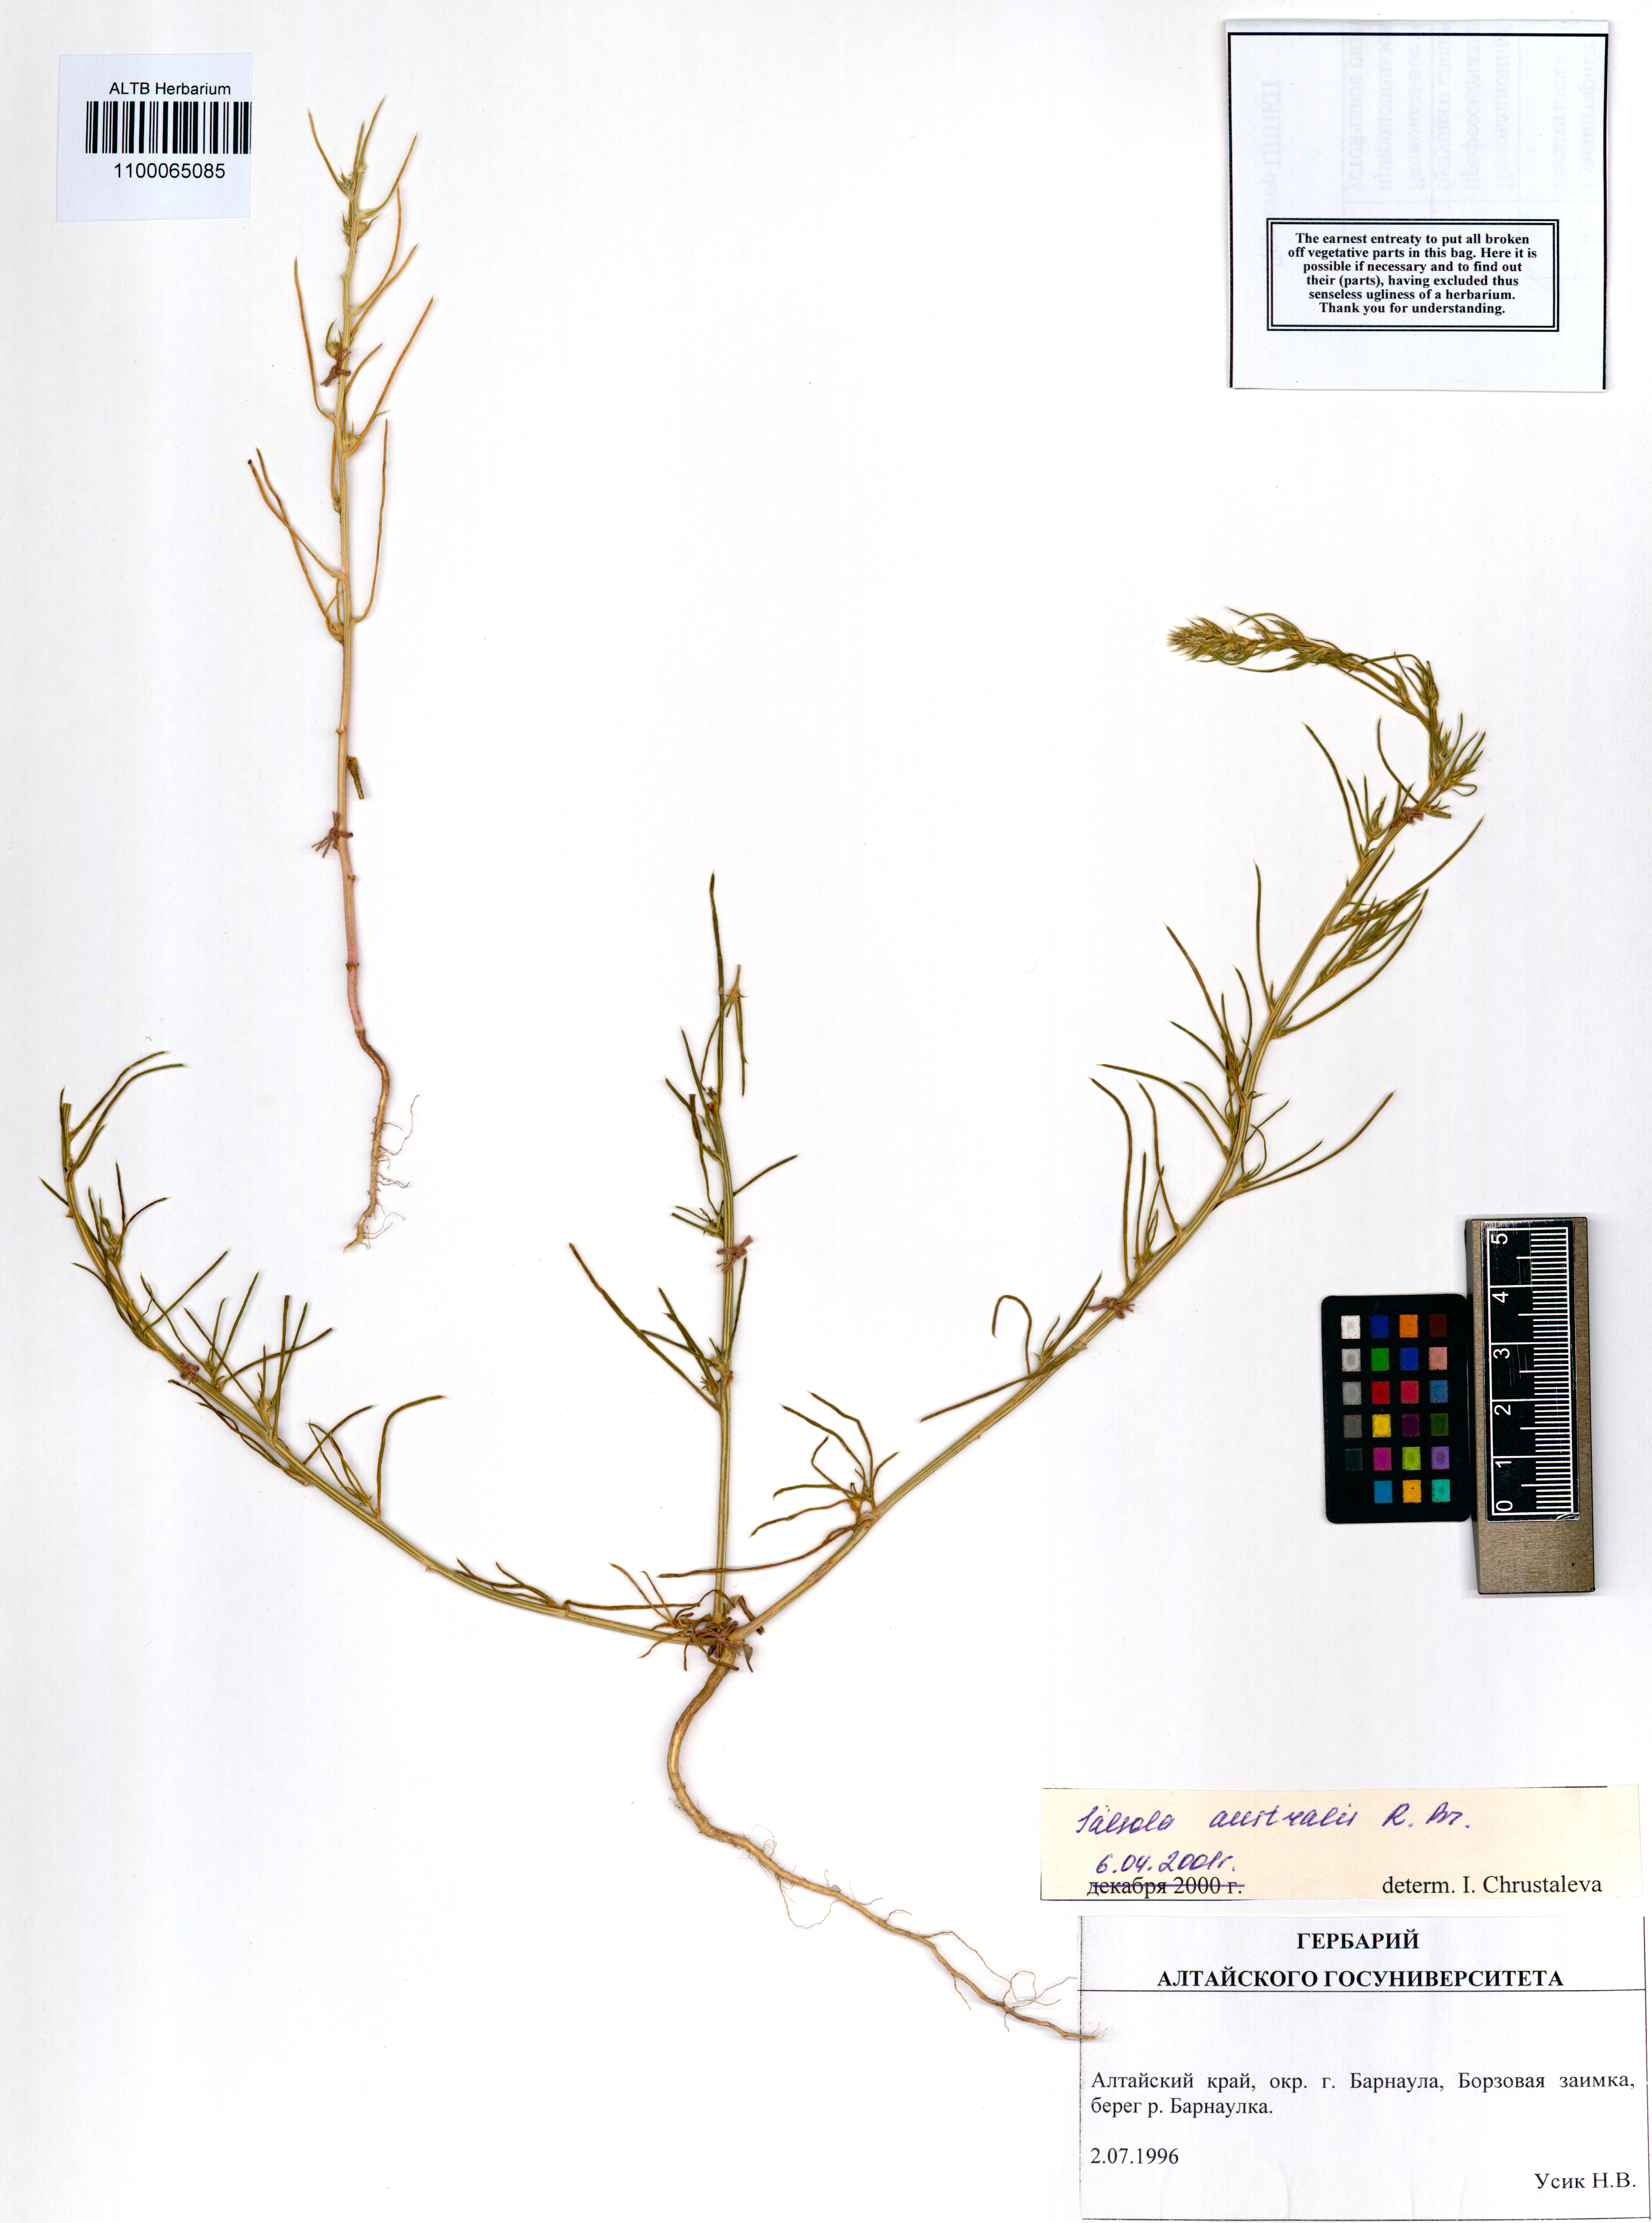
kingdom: Plantae
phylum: Tracheophyta
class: Magnoliopsida
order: Caryophyllales
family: Amaranthaceae
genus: Salsola
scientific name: Salsola australis
